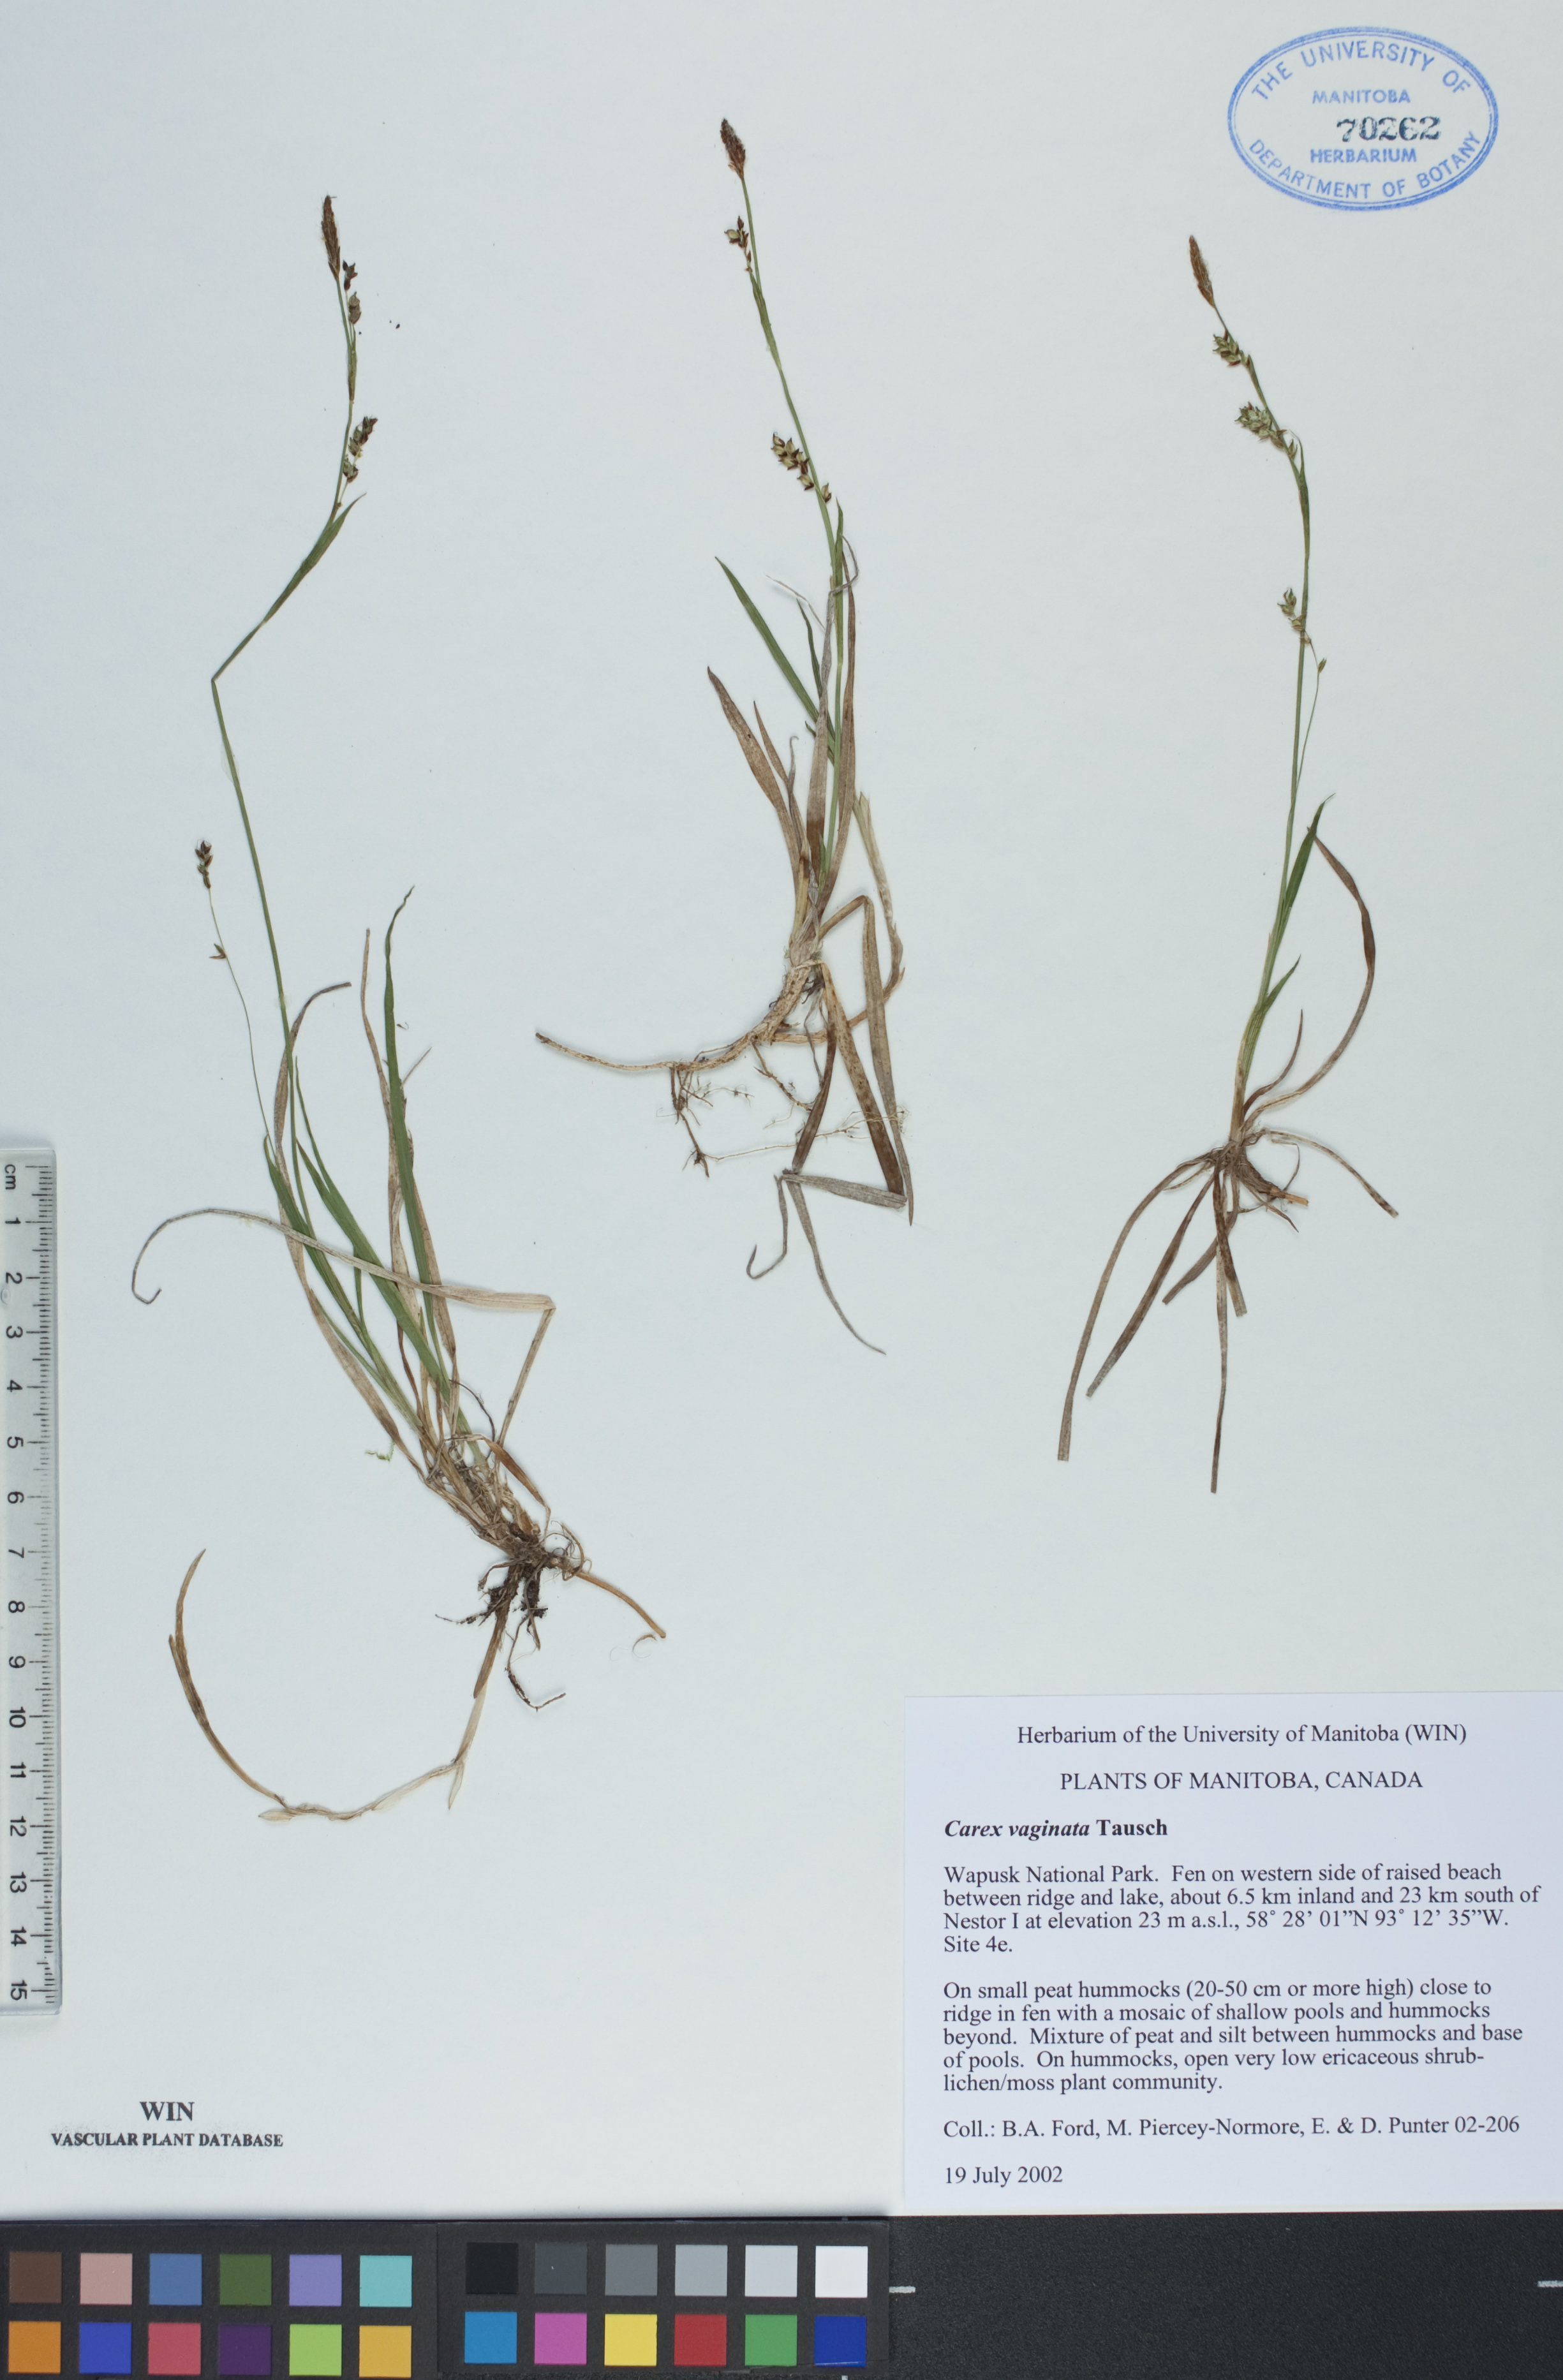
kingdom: Plantae
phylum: Tracheophyta
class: Liliopsida
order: Poales
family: Cyperaceae
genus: Carex
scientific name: Carex vaginata
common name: Sheathed sedge
